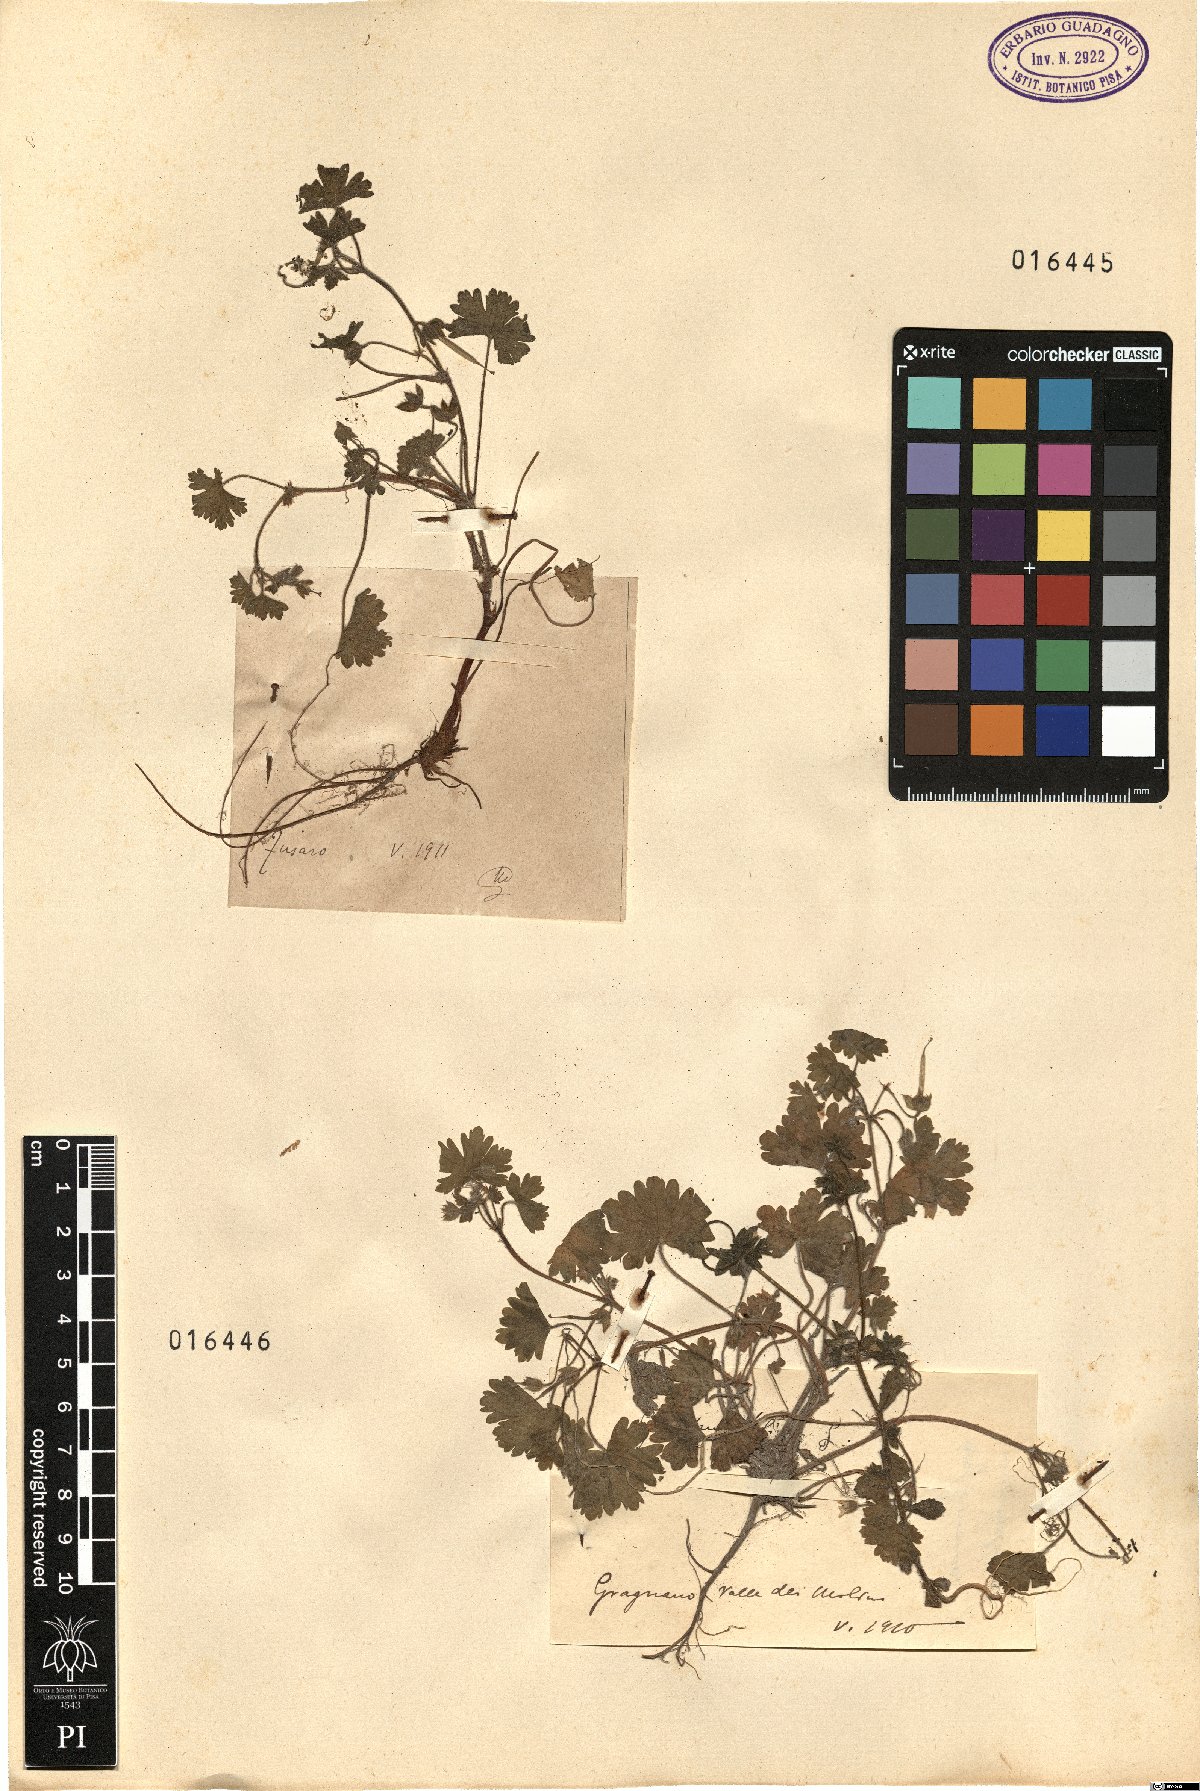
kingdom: Plantae
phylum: Tracheophyta
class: Magnoliopsida
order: Geraniales
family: Geraniaceae
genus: Geranium
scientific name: Geranium rotundifolium
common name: Round-leaved crane's-bill
